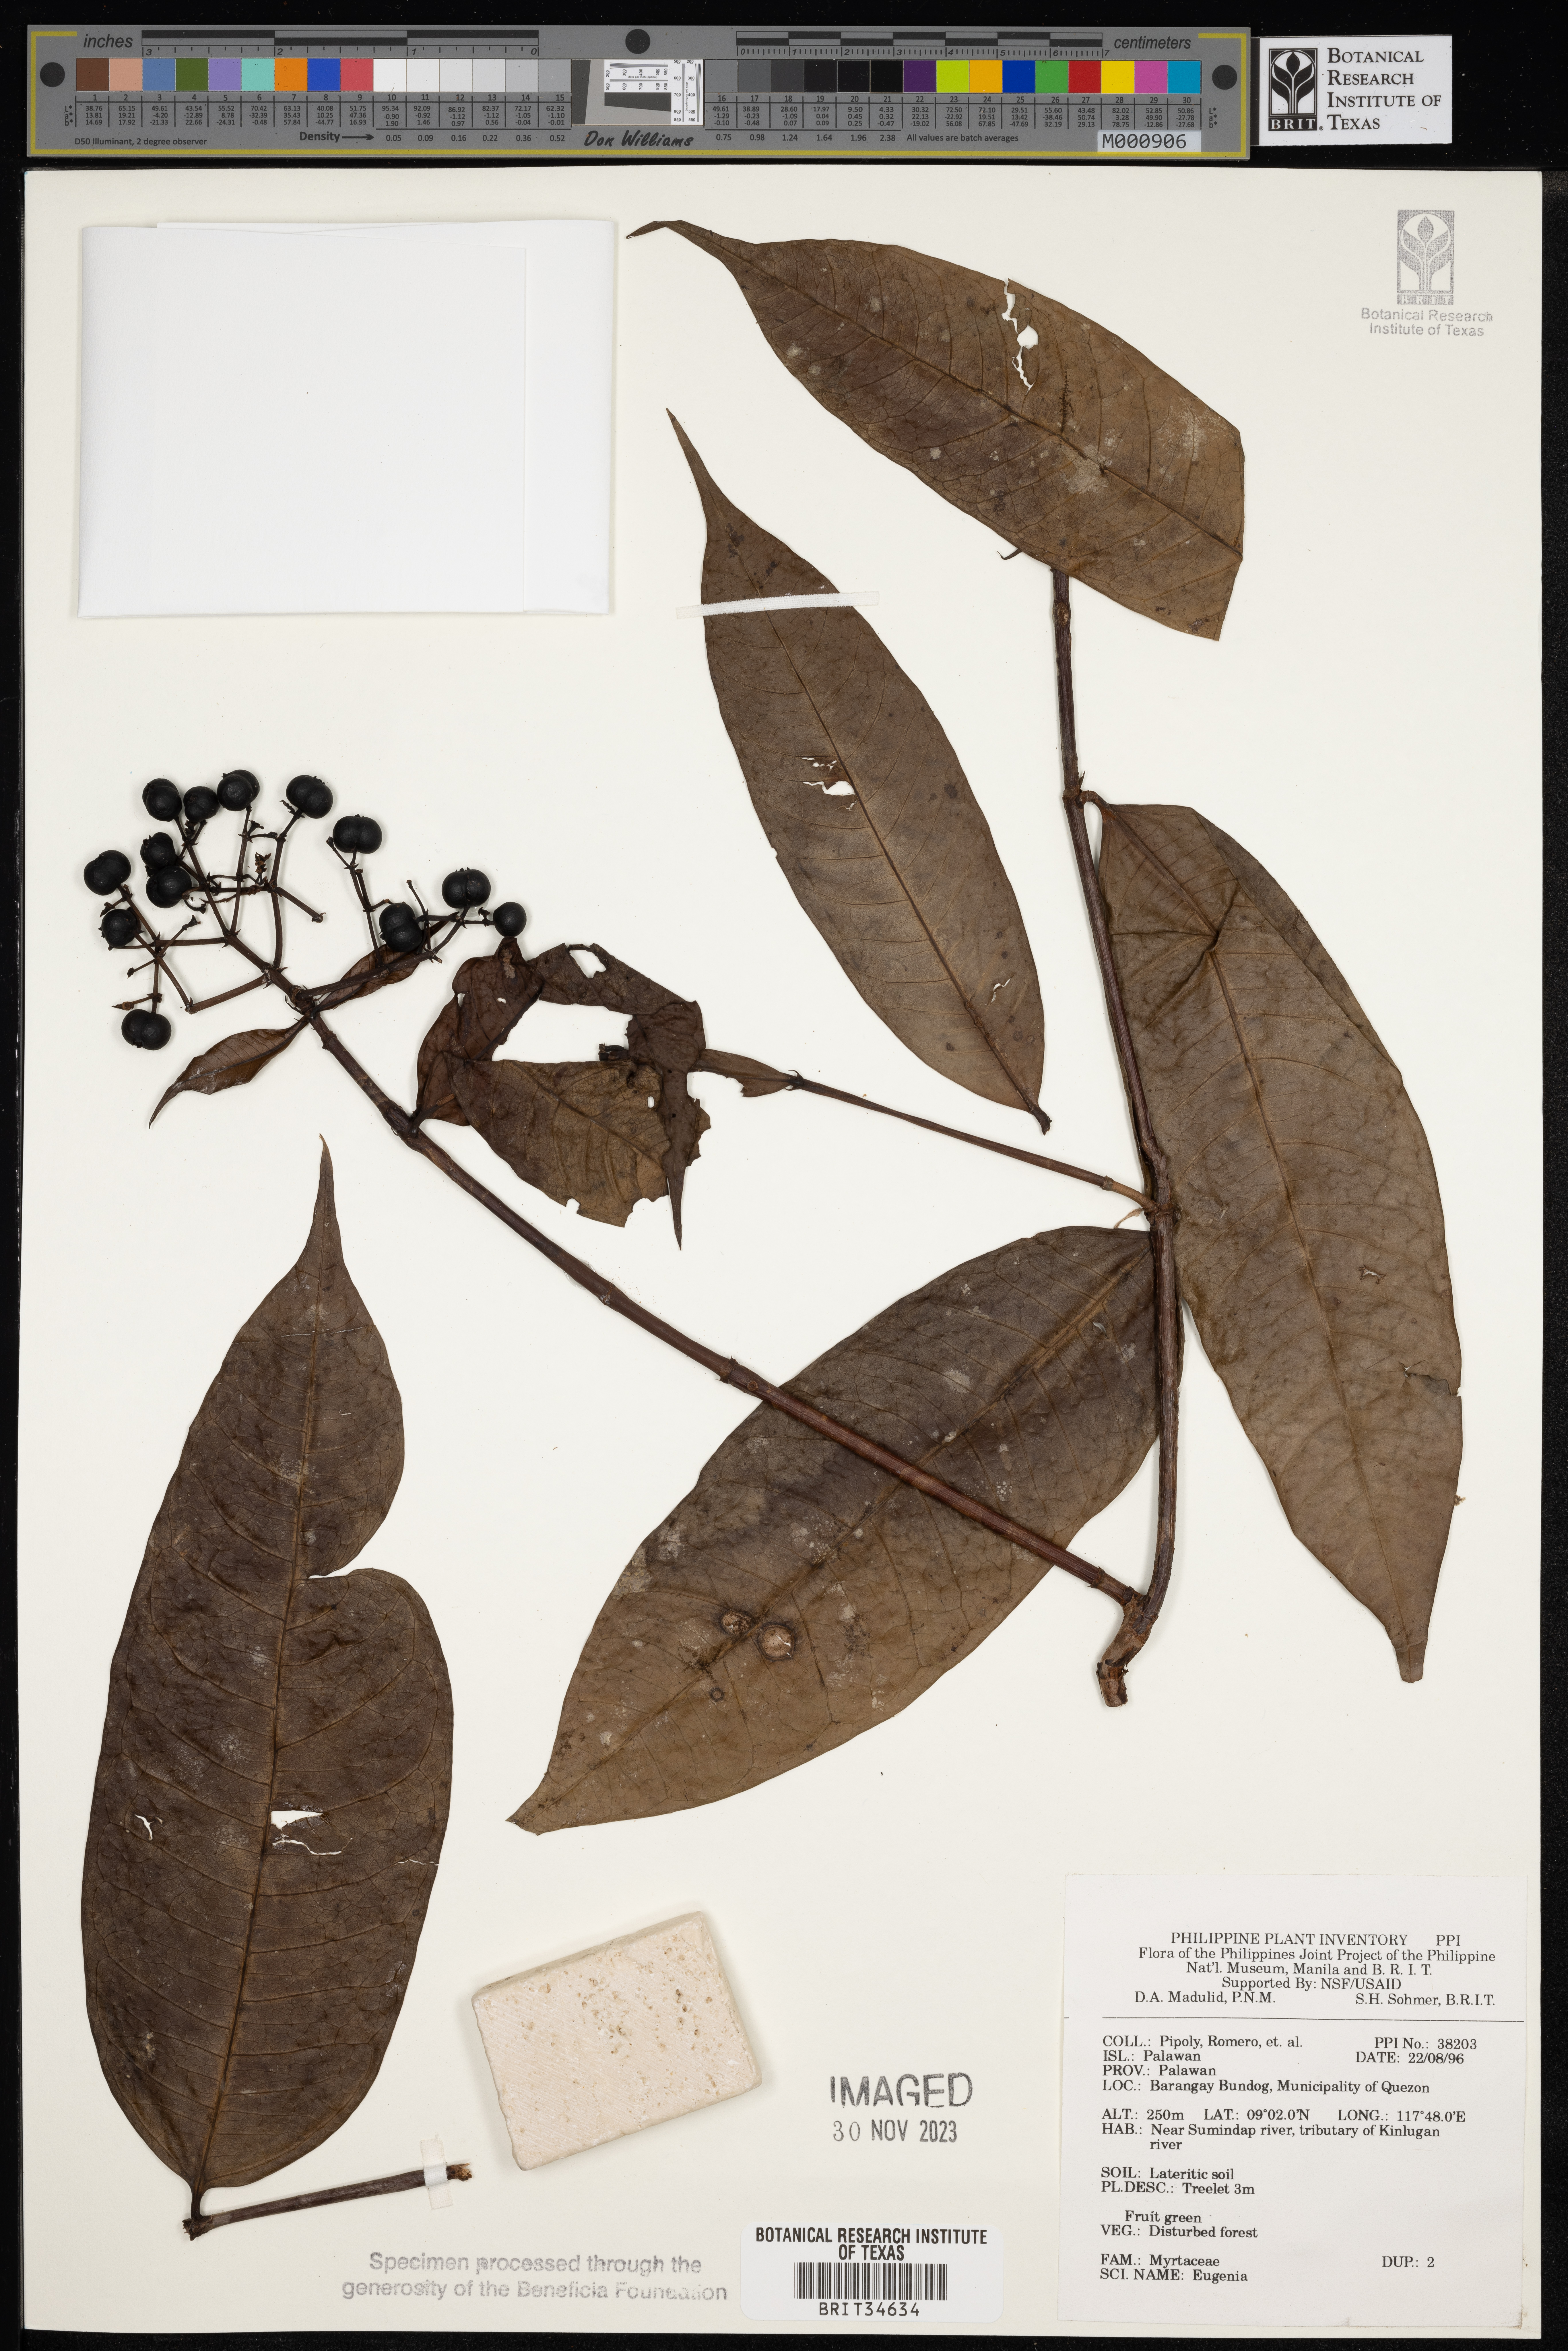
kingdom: Plantae
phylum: Tracheophyta
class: Magnoliopsida
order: Myrtales
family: Myrtaceae
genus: Eugenia
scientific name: Eugenia
